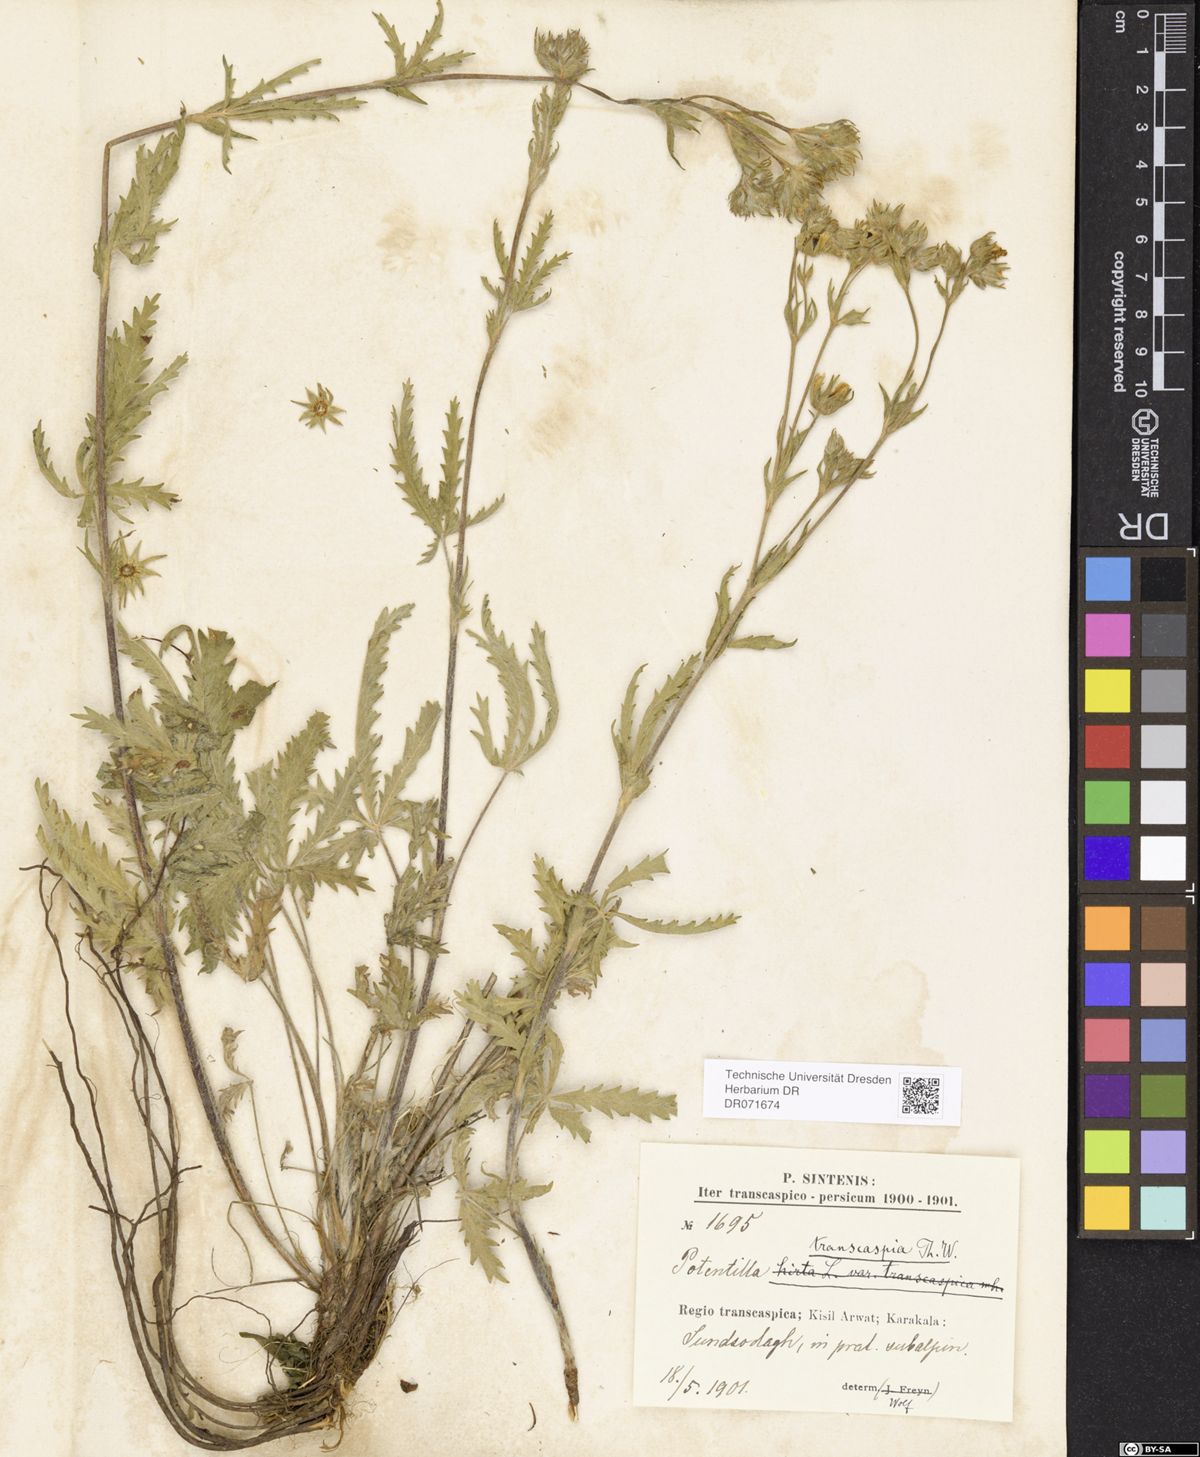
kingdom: Plantae
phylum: Tracheophyta
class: Magnoliopsida
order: Rosales
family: Rosaceae
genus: Potentilla
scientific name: Potentilla pedata
